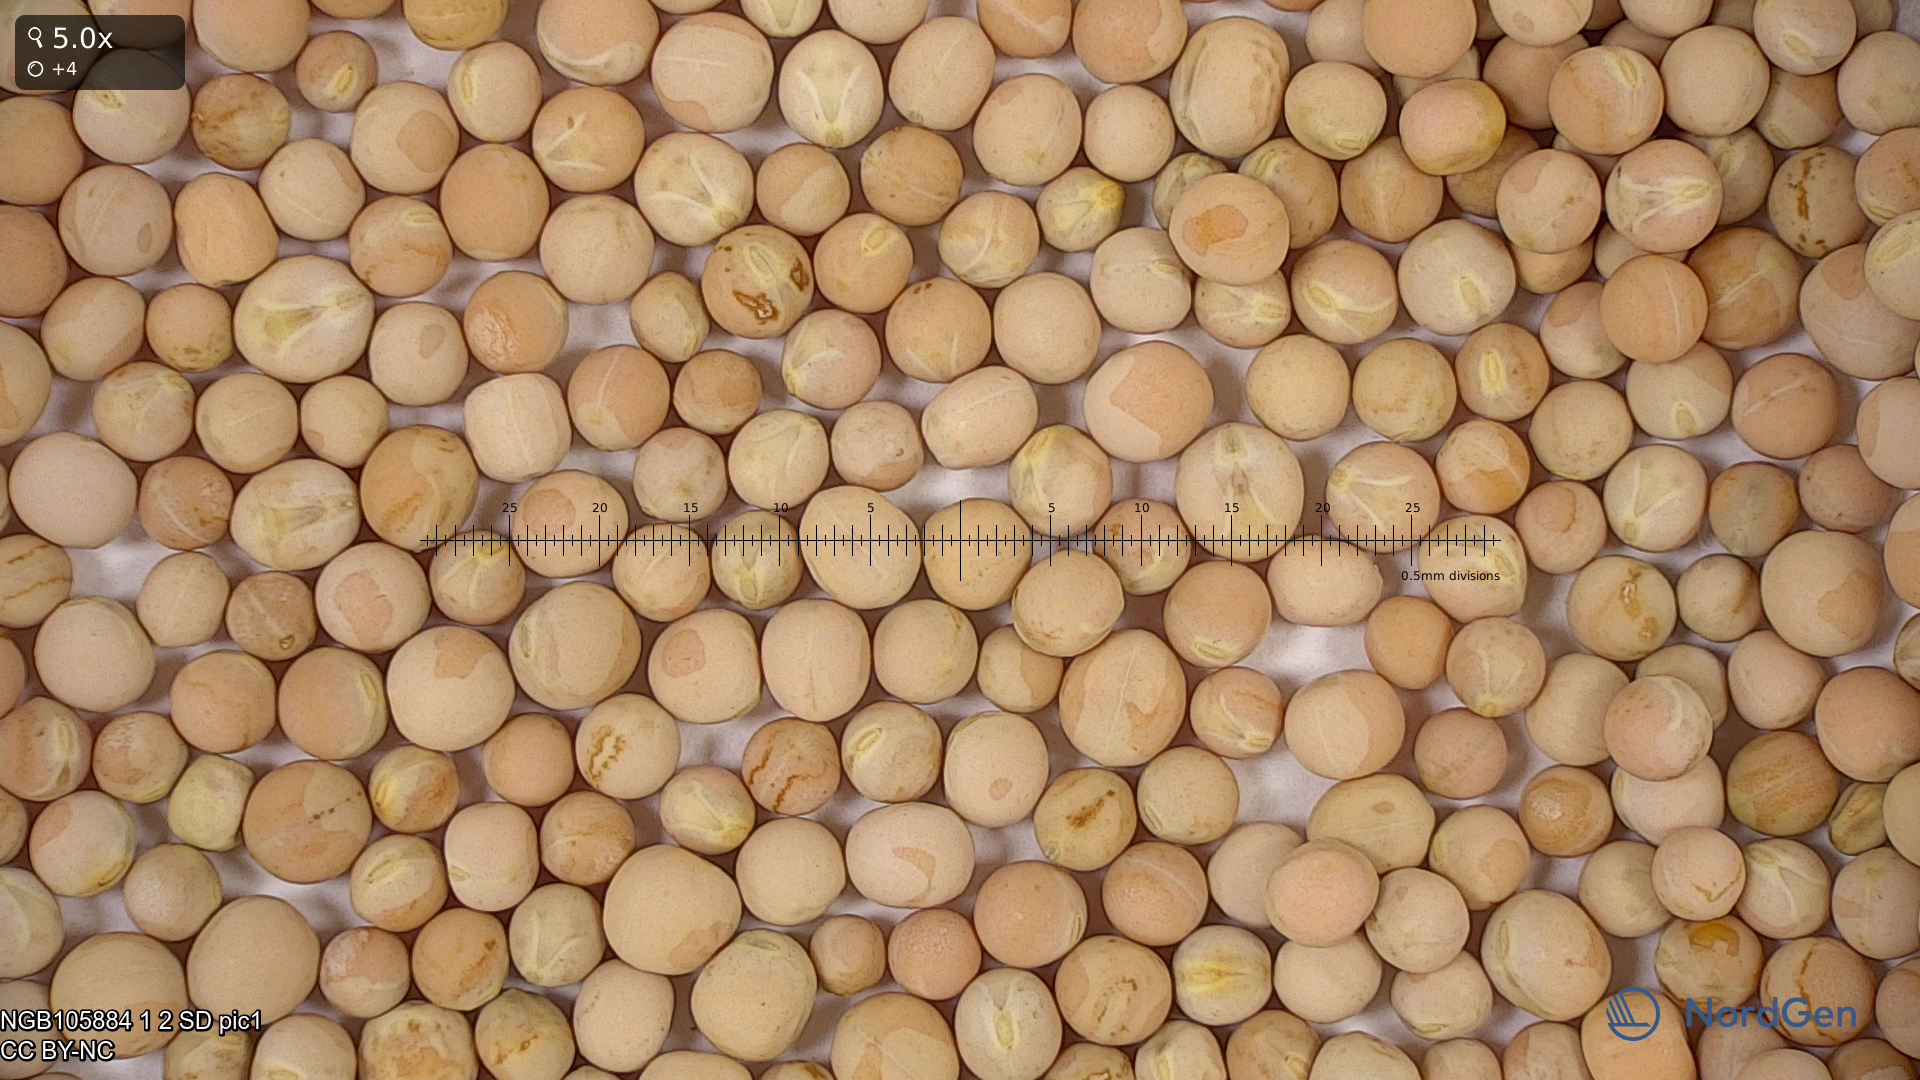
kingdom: Plantae
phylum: Tracheophyta
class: Magnoliopsida
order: Fabales
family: Fabaceae
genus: Lathyrus
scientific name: Lathyrus oleraceus
